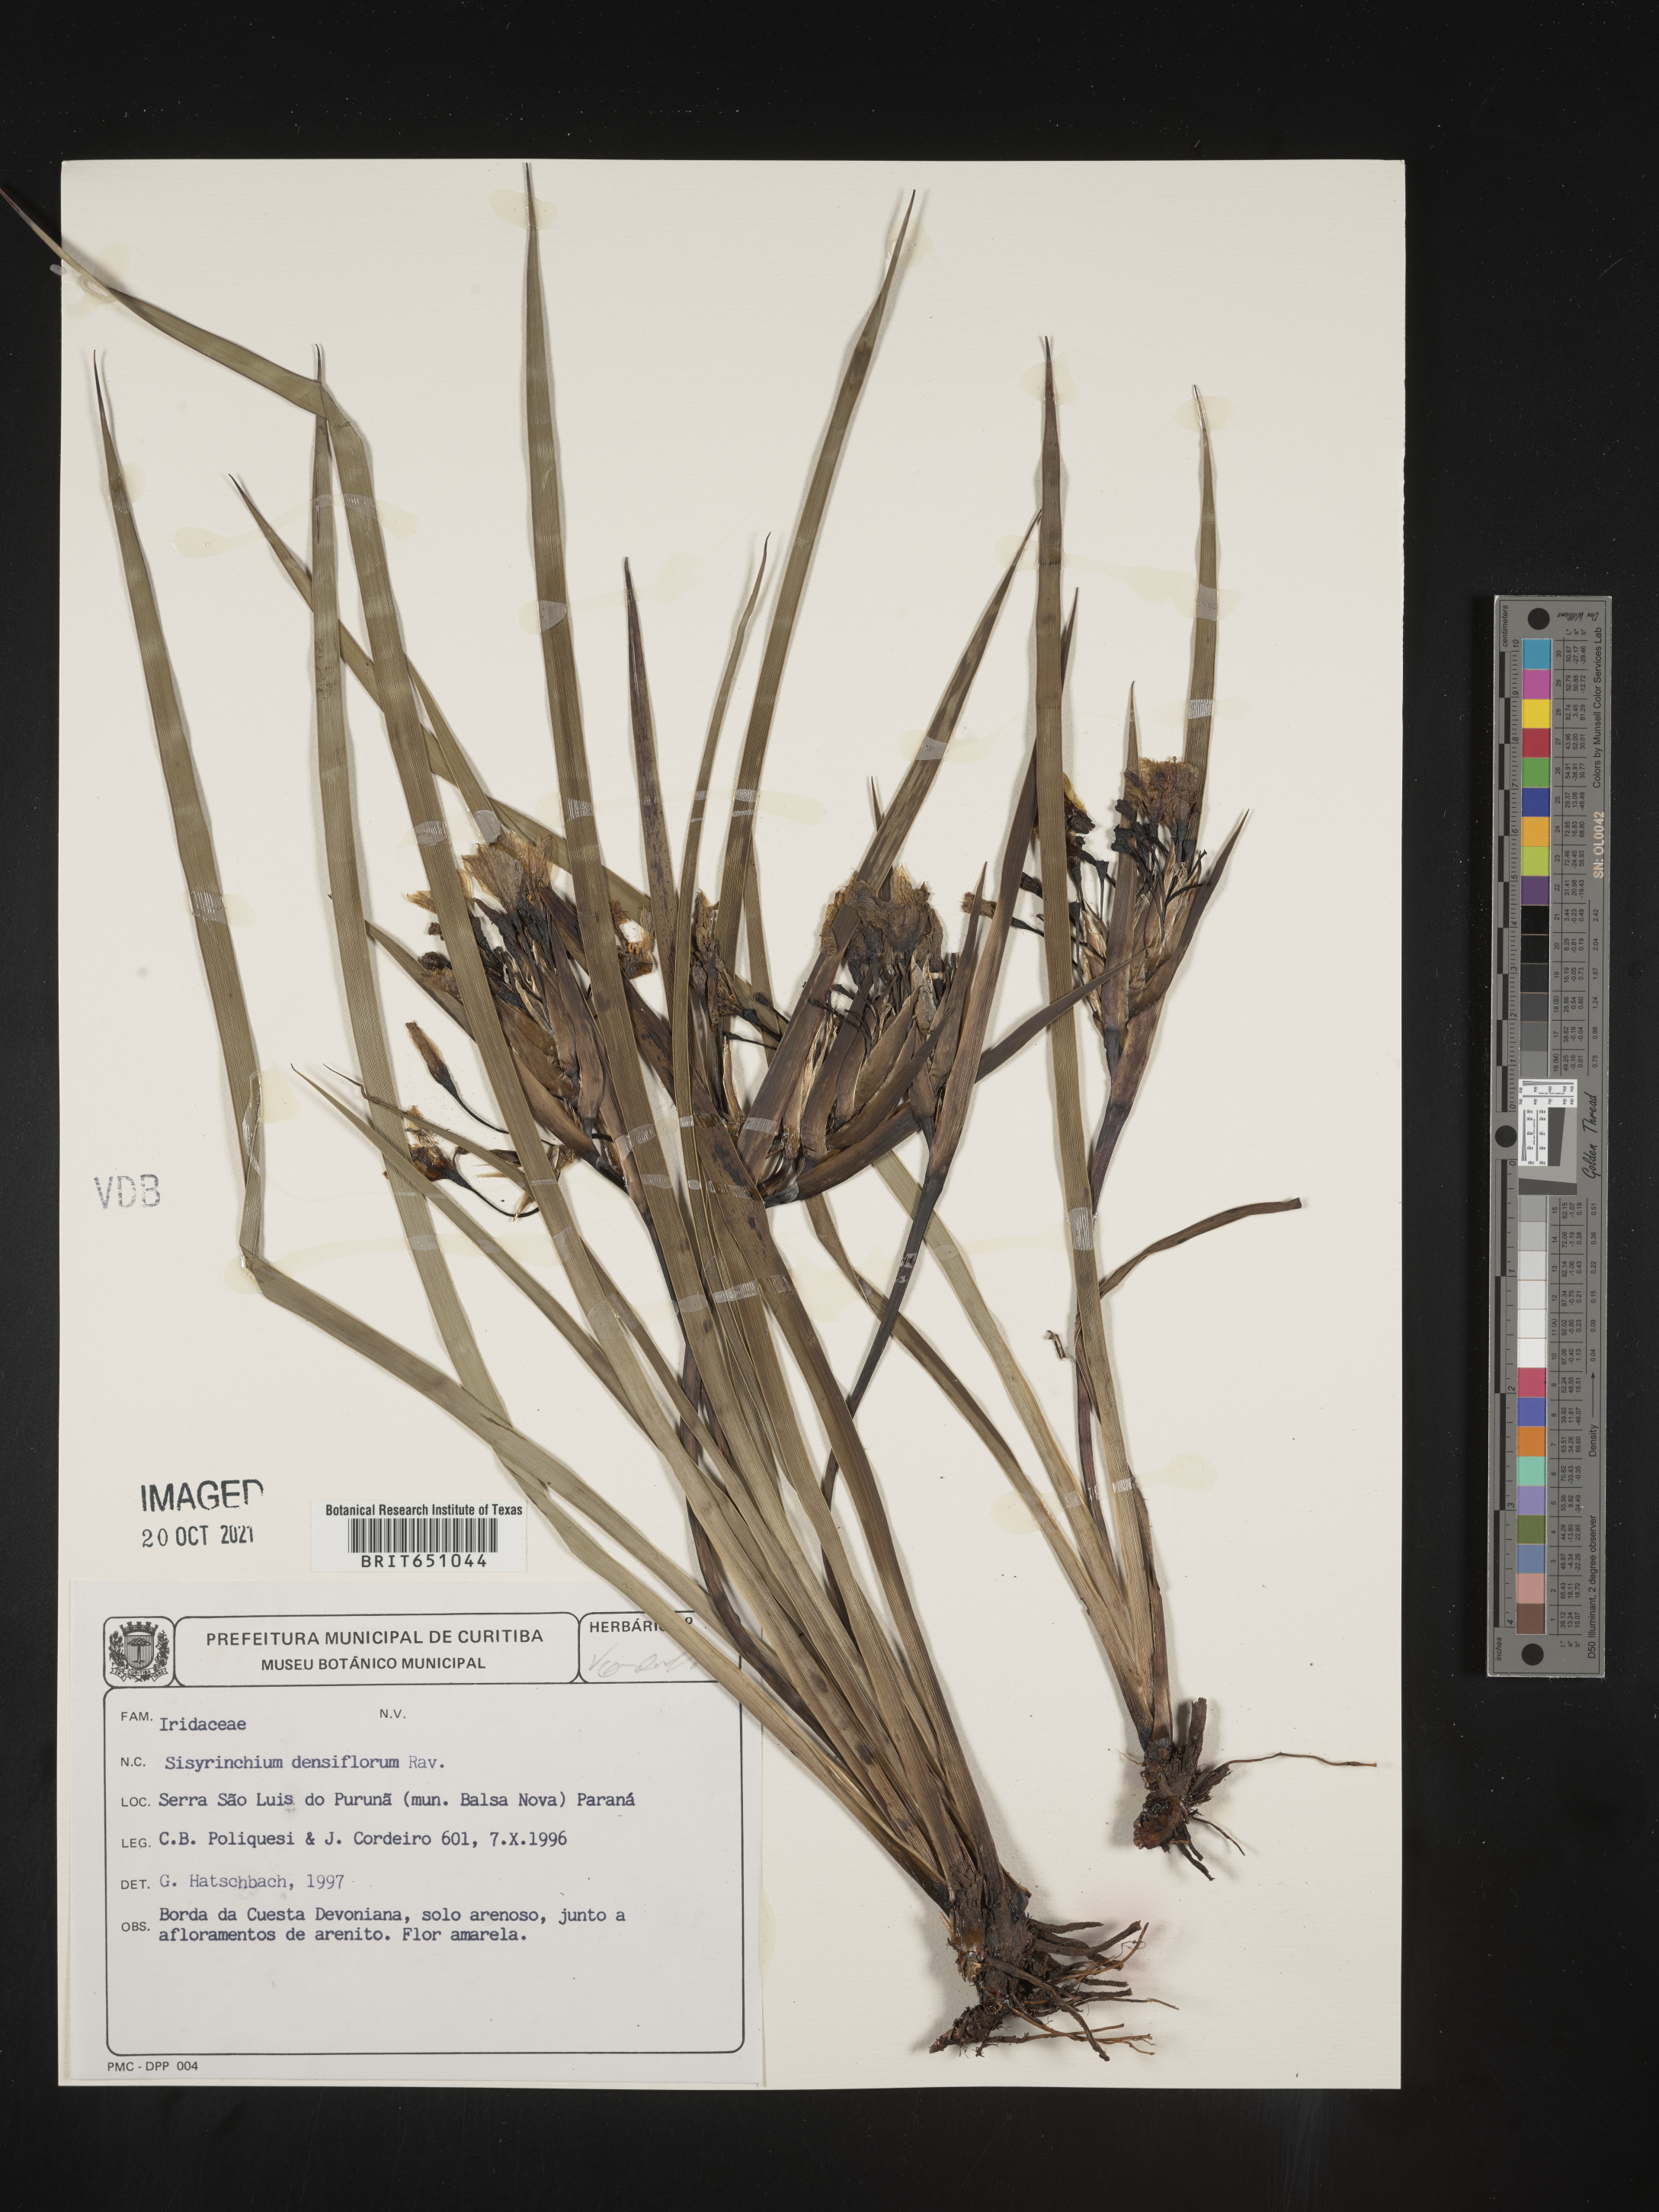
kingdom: Plantae
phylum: Tracheophyta
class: Liliopsida
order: Asparagales
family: Iridaceae
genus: Sisyrinchium
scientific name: Sisyrinchium
